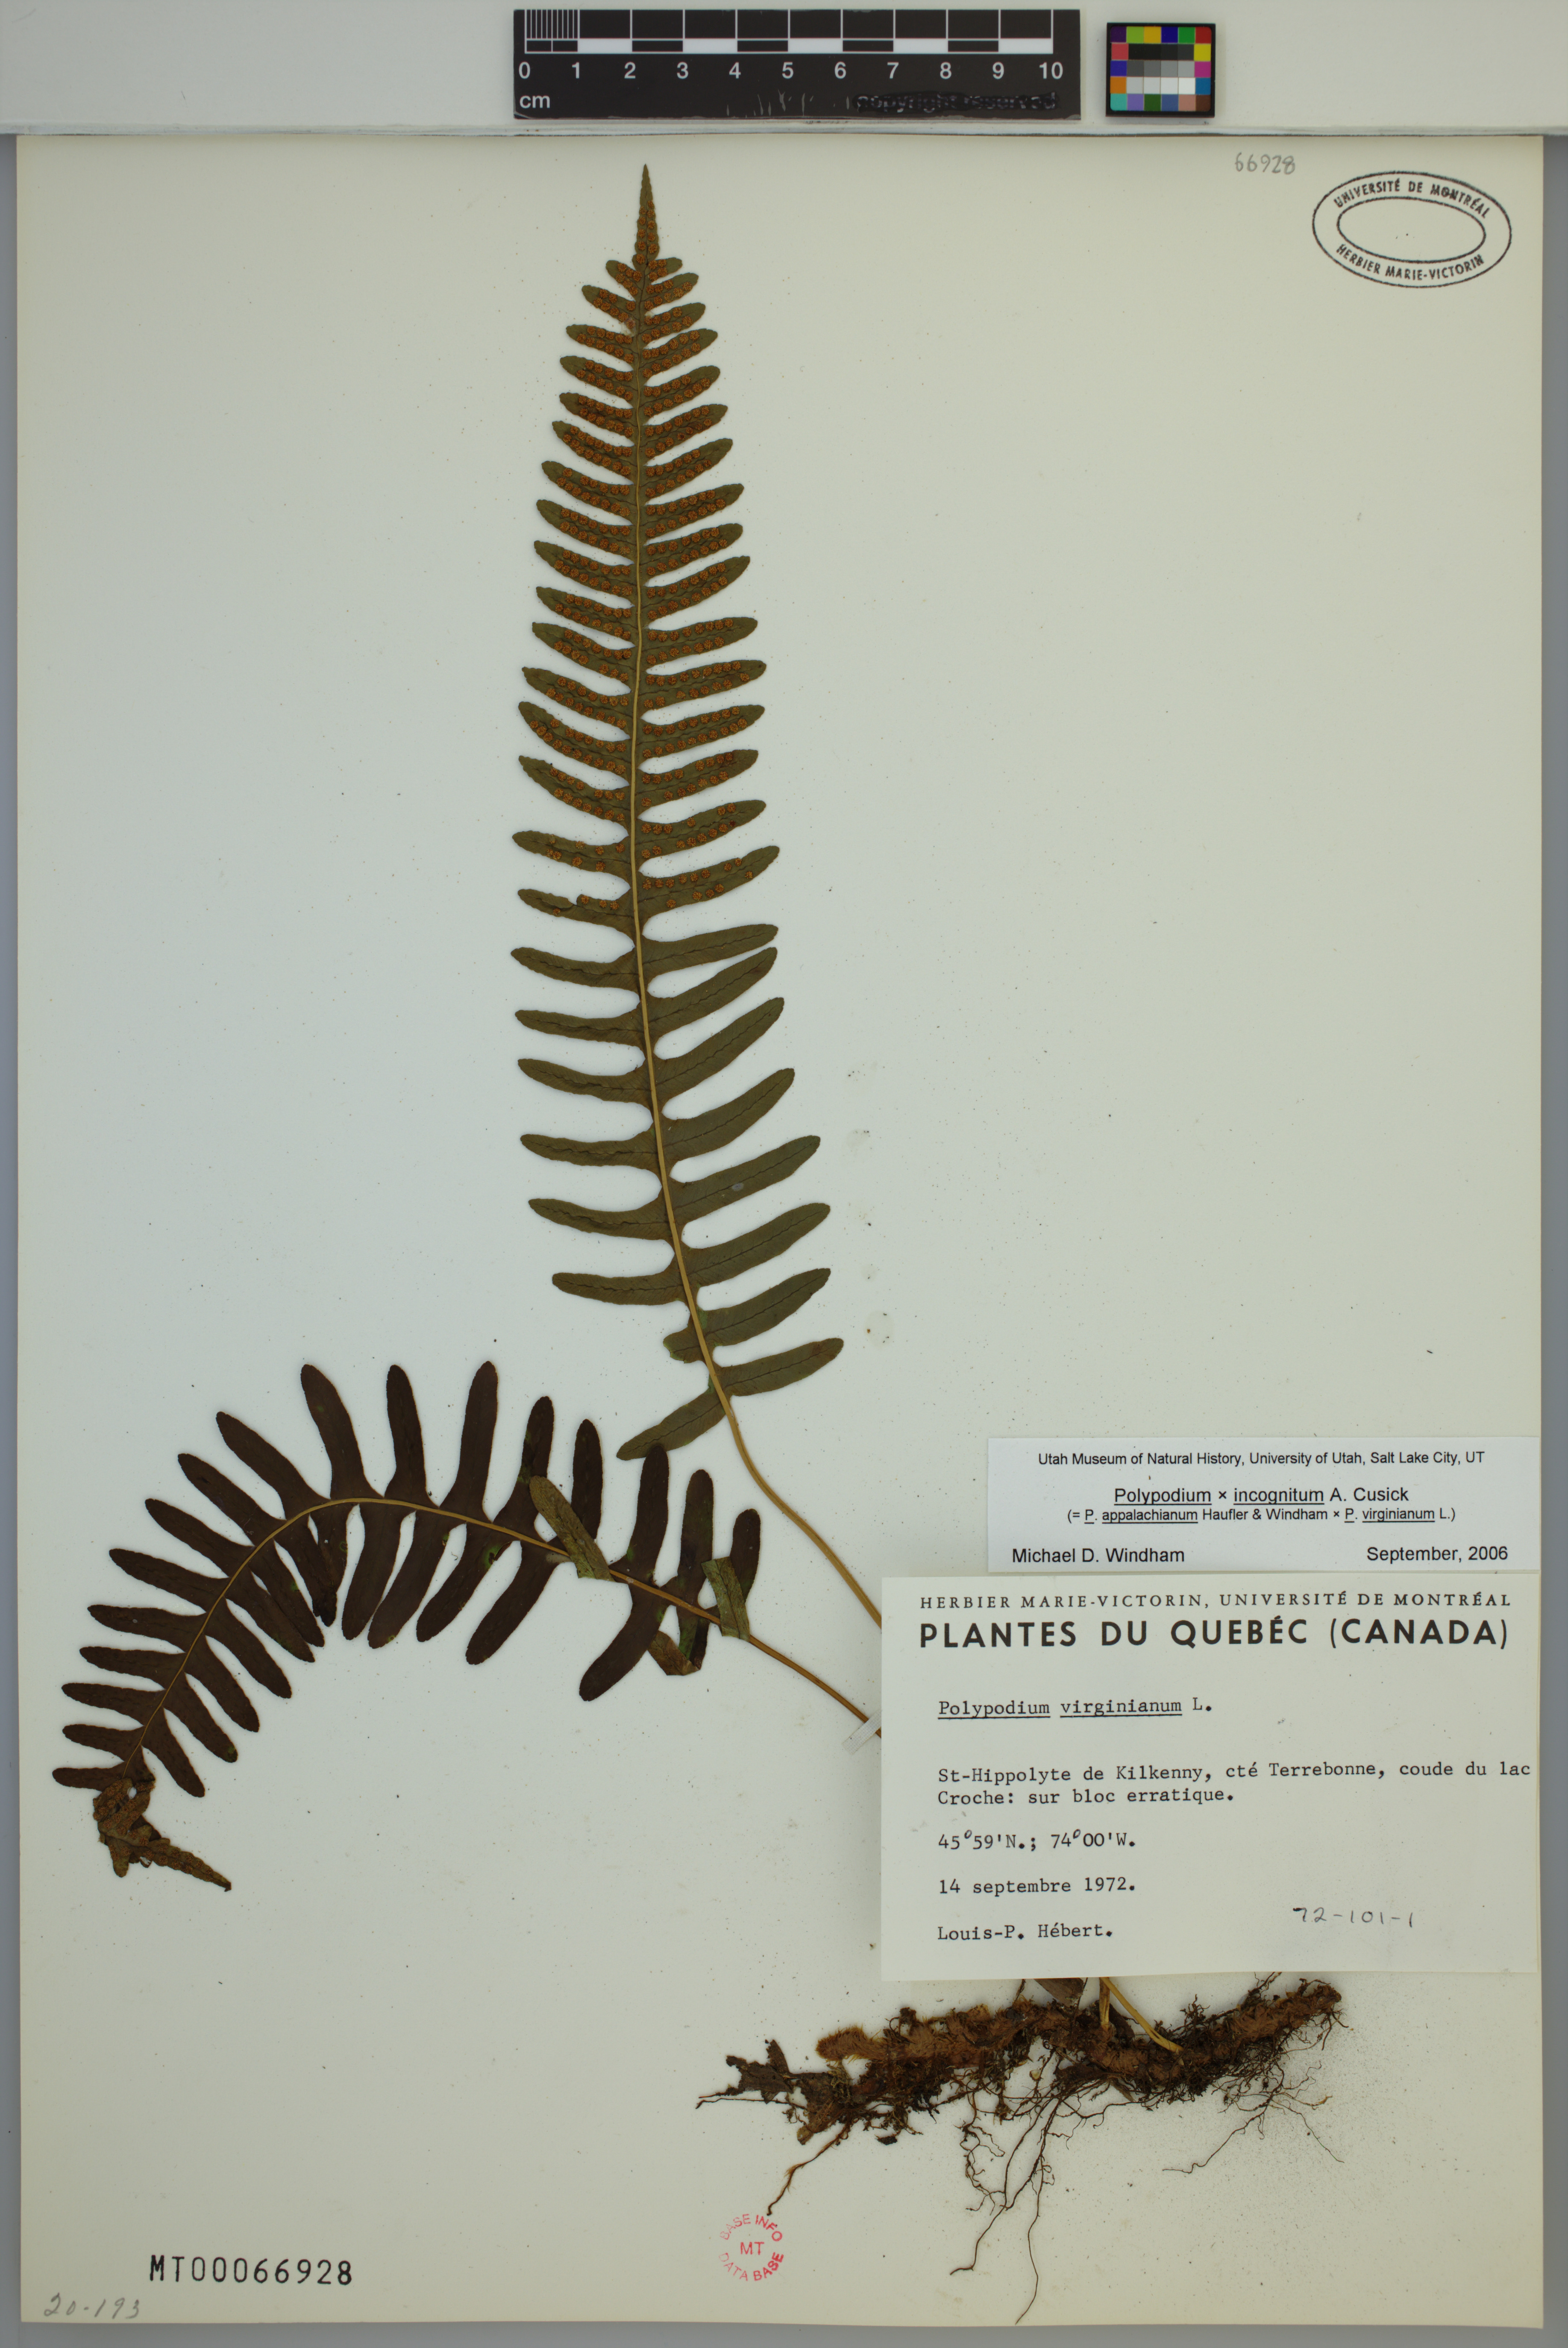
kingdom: Plantae
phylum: Tracheophyta
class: Polypodiopsida
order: Polypodiales
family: Polypodiaceae
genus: Polypodium
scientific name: Polypodium incognitum
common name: Eastern hybrid polypody
